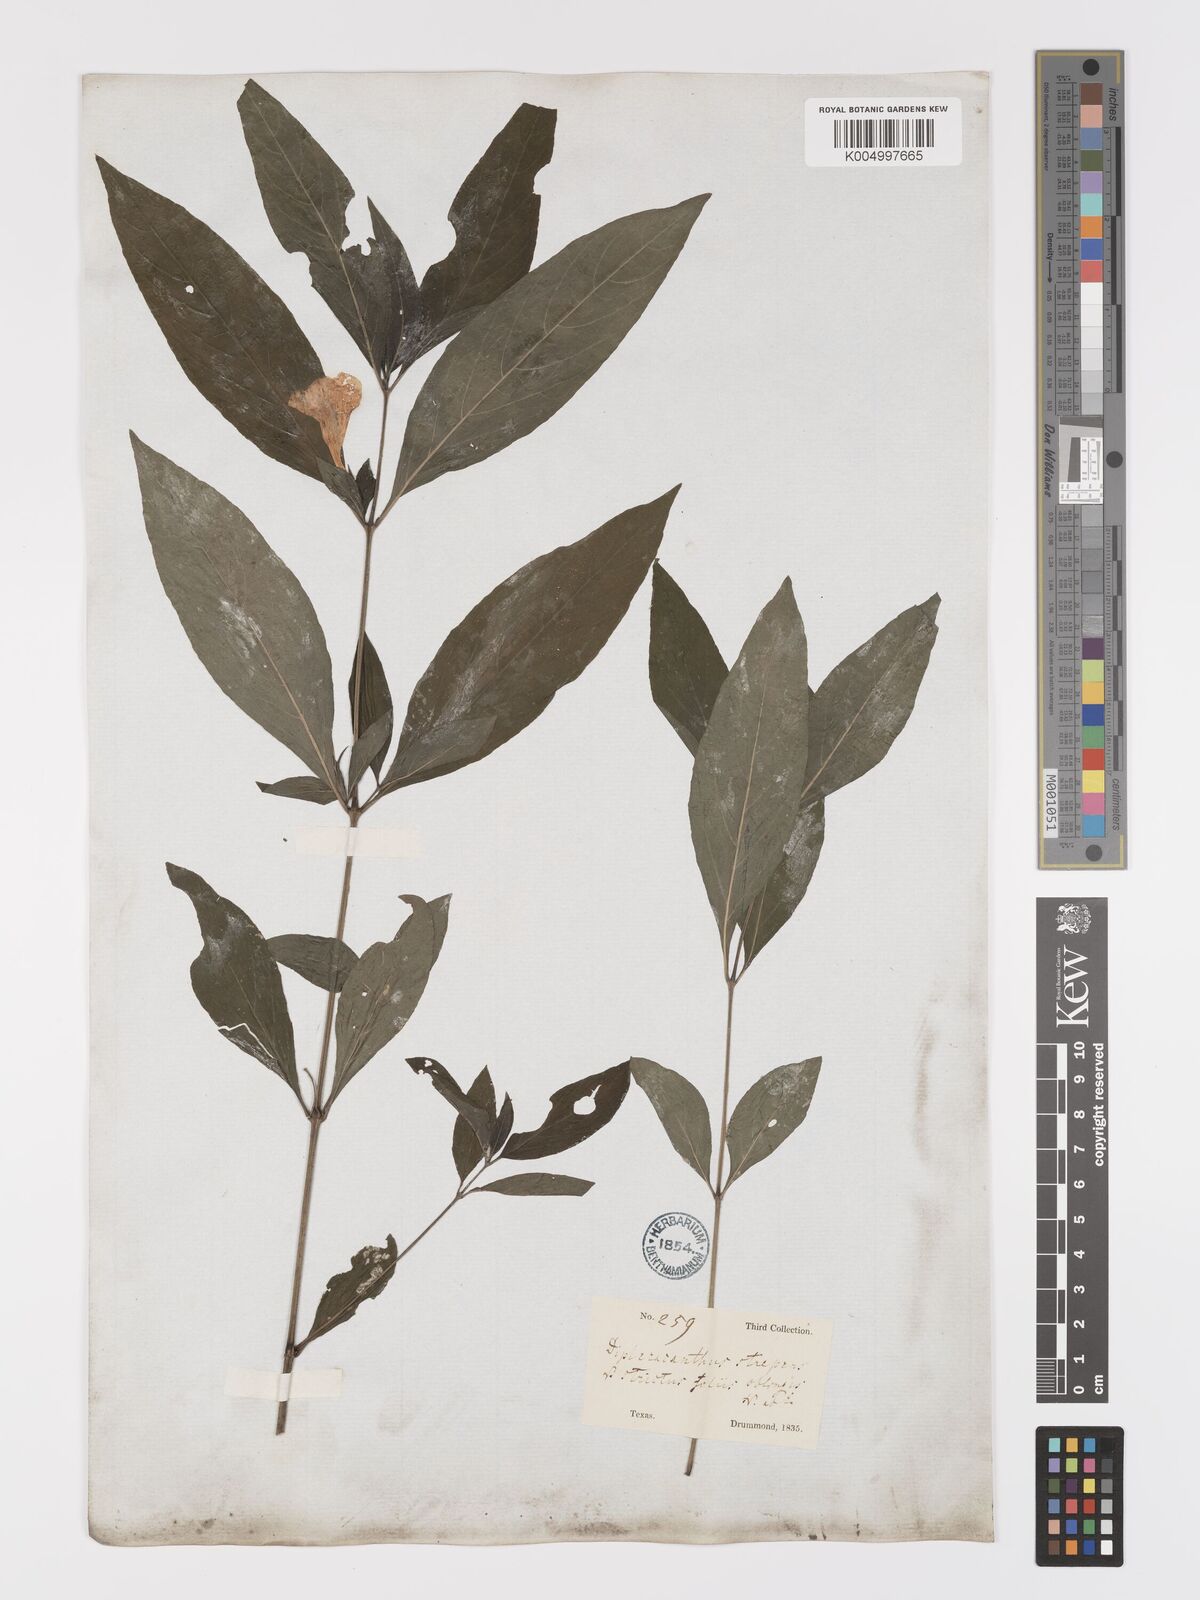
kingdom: Plantae
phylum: Tracheophyta
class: Magnoliopsida
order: Lamiales
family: Acanthaceae
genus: Ruellia
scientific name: Ruellia strepens
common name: Limestone wild petunia
